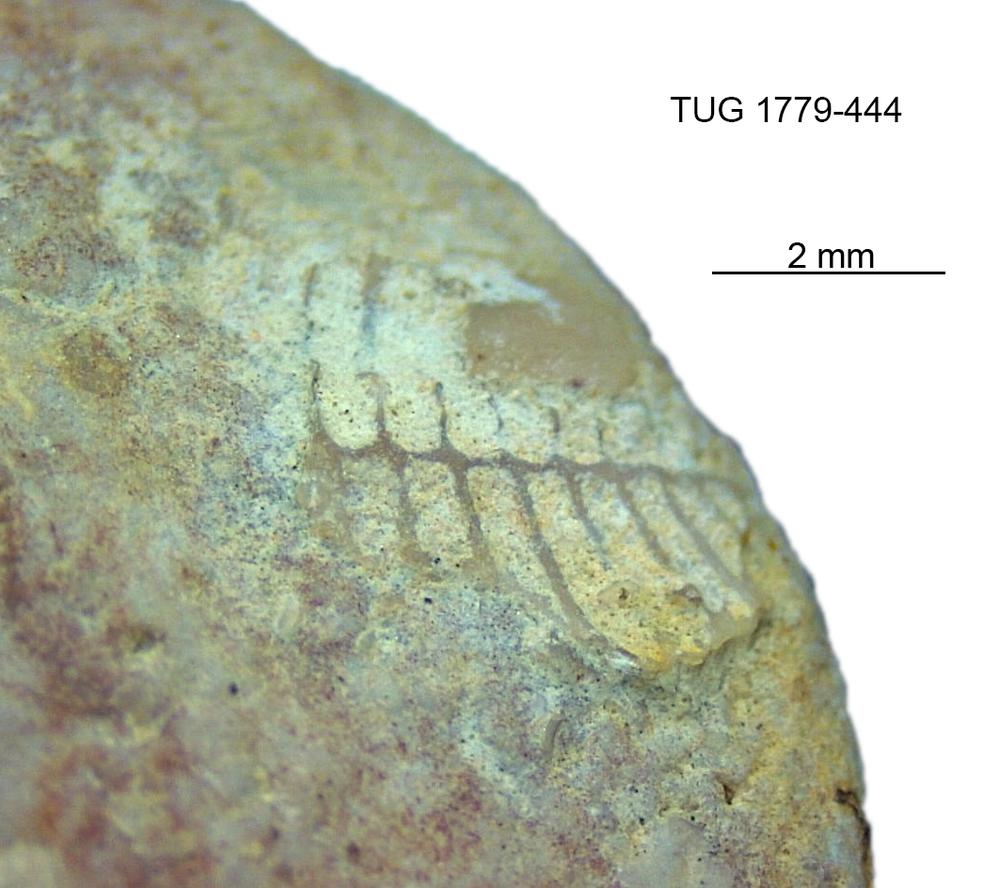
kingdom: Animalia
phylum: Bryozoa
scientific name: Bryozoa
